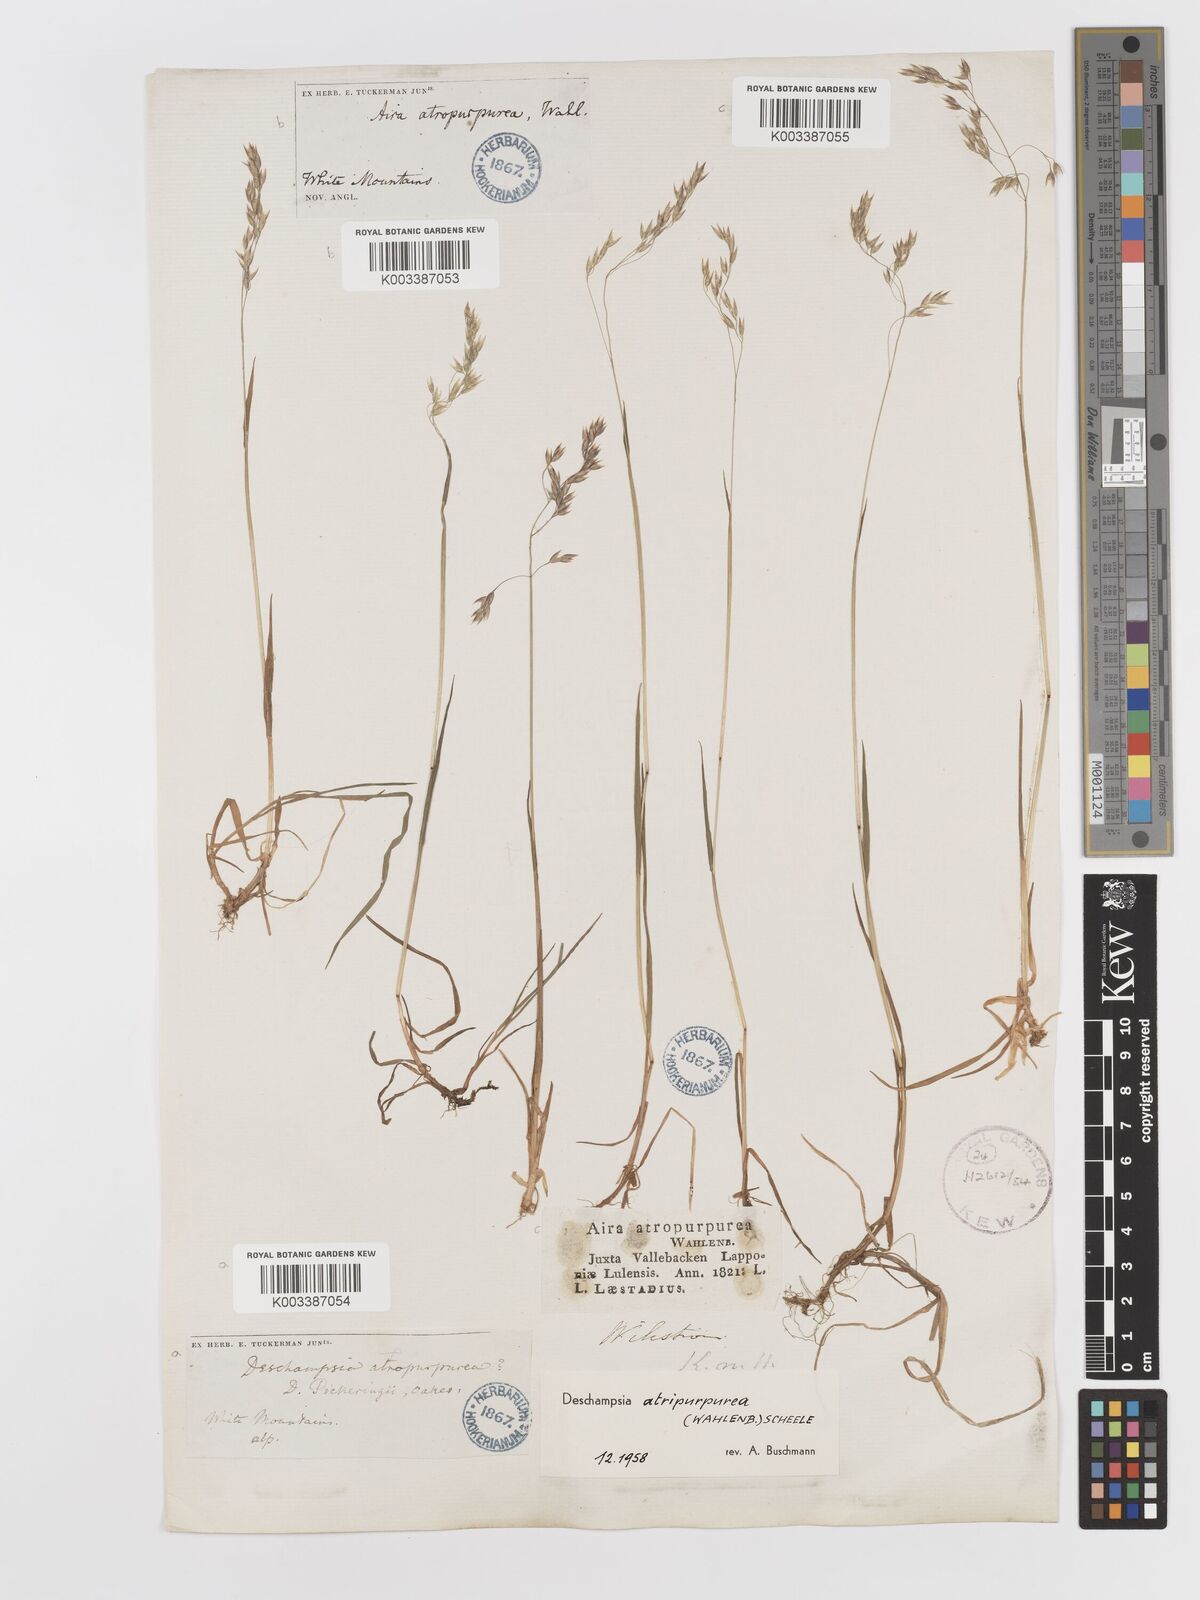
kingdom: Plantae
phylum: Tracheophyta
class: Liliopsida
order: Poales
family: Poaceae
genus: Vahlodea
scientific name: Vahlodea atropurpurea
